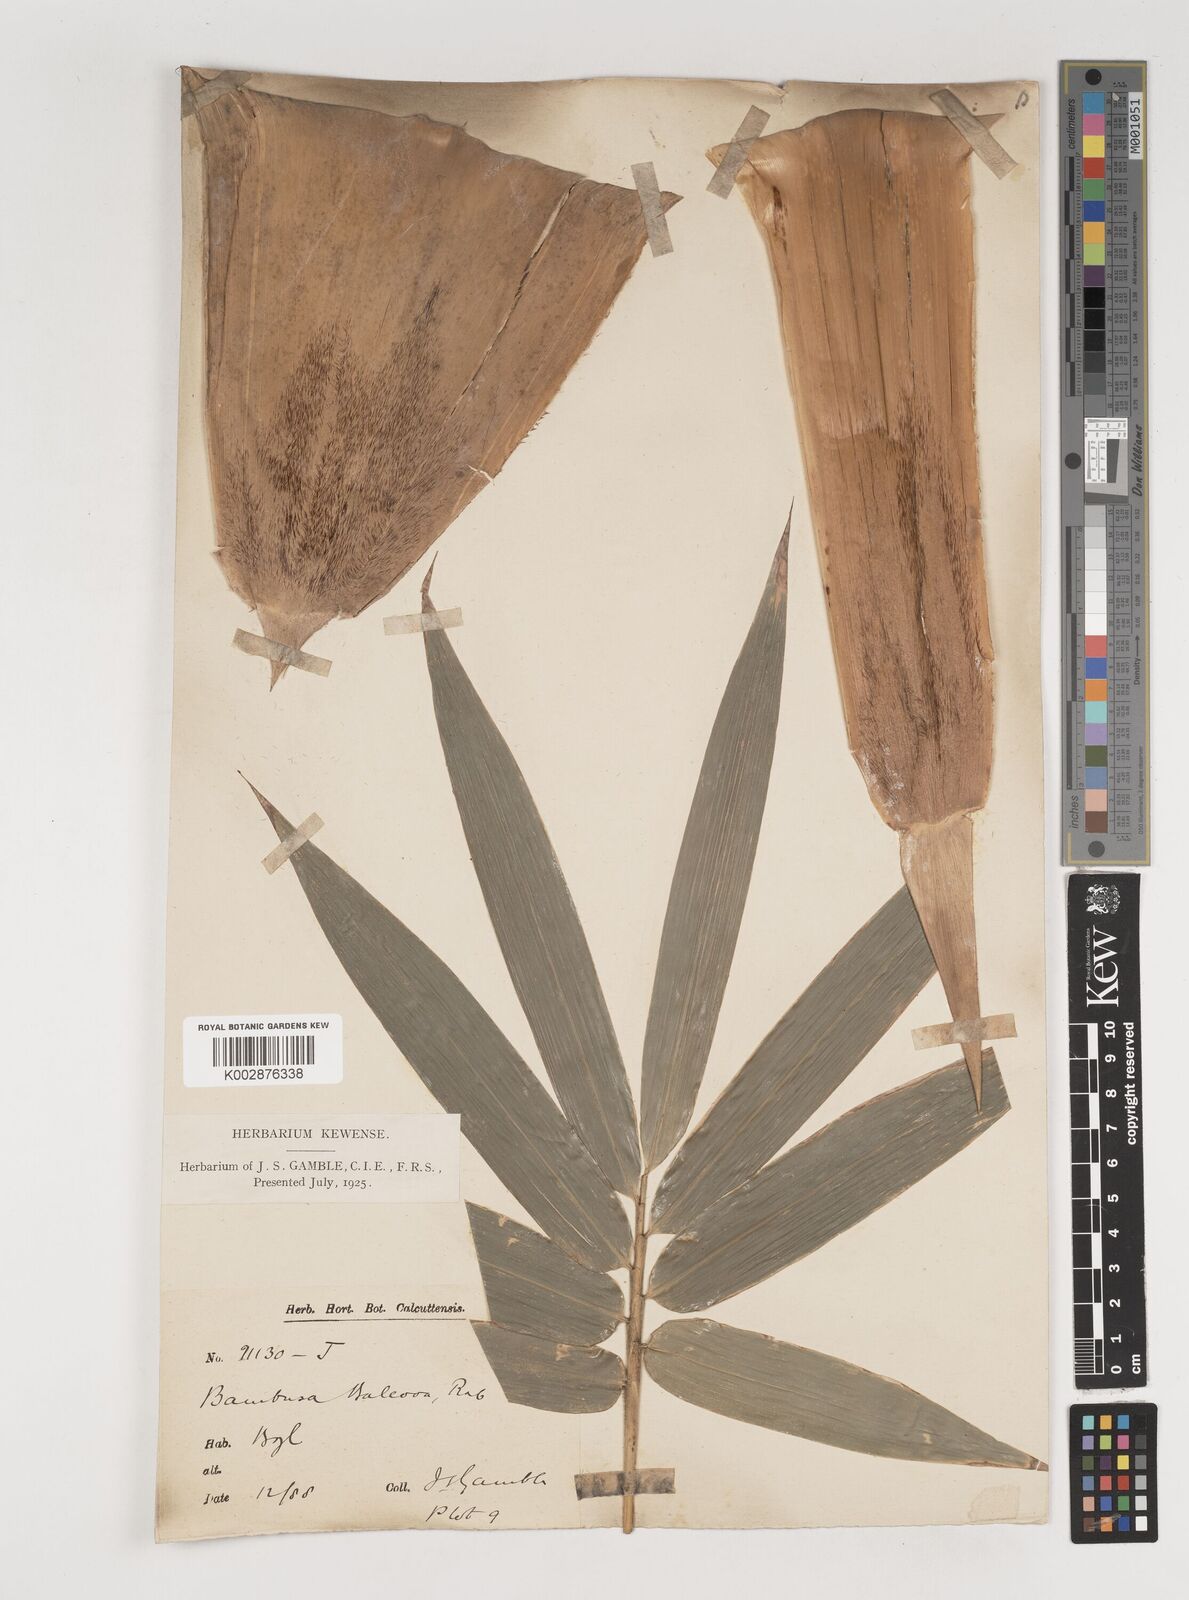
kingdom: Plantae
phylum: Tracheophyta
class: Liliopsida
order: Poales
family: Poaceae
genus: Bambusa
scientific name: Bambusa balcooa
